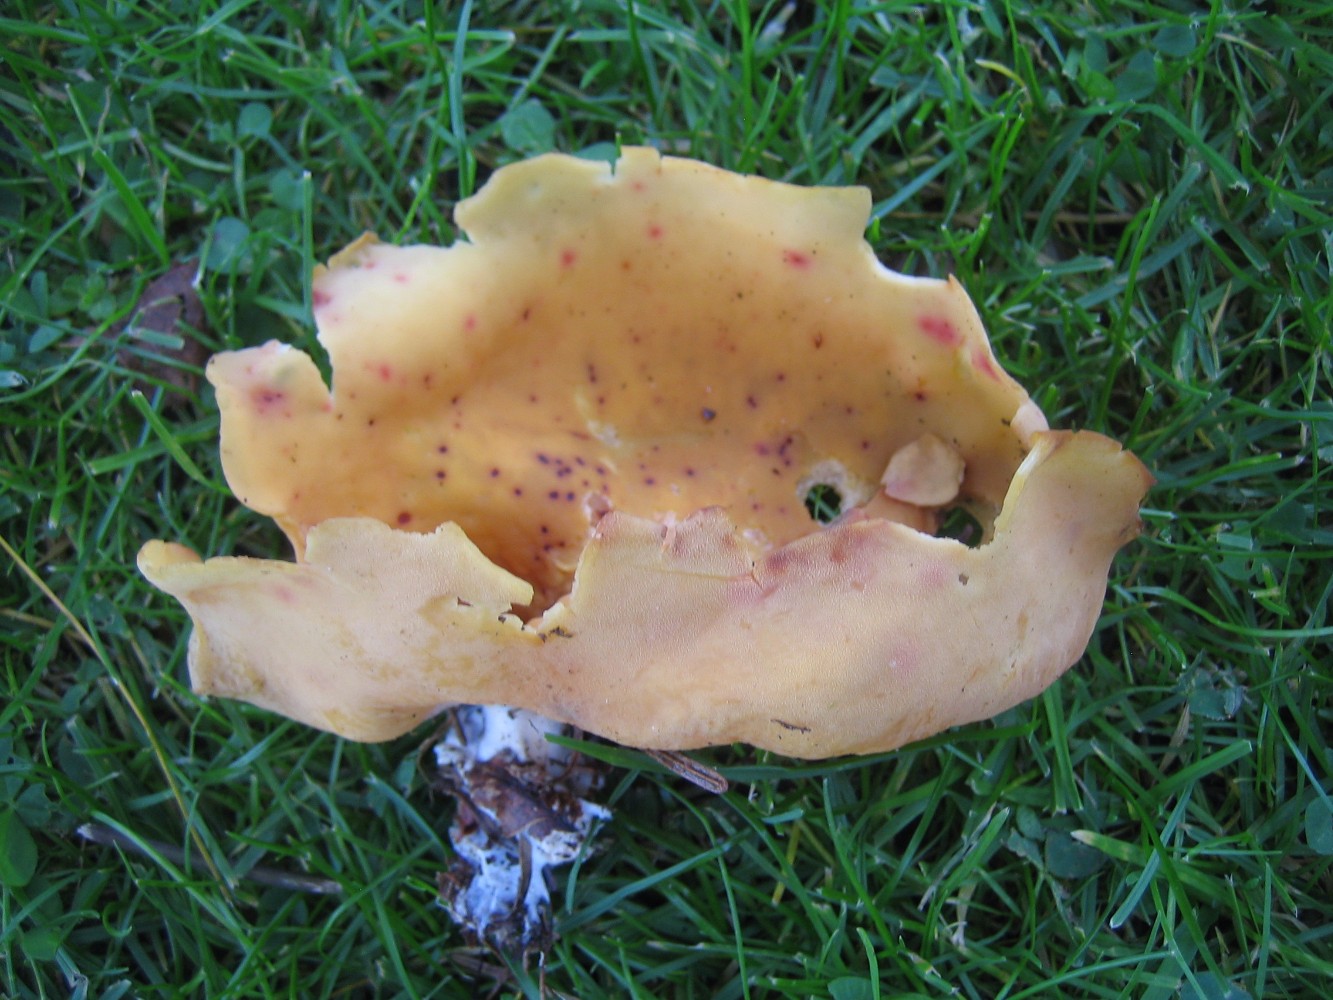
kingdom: Fungi
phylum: Ascomycota
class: Pezizomycetes
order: Pezizales
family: Otideaceae
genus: Otidea
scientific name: Otidea onotica
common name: æsel-ørebæger
